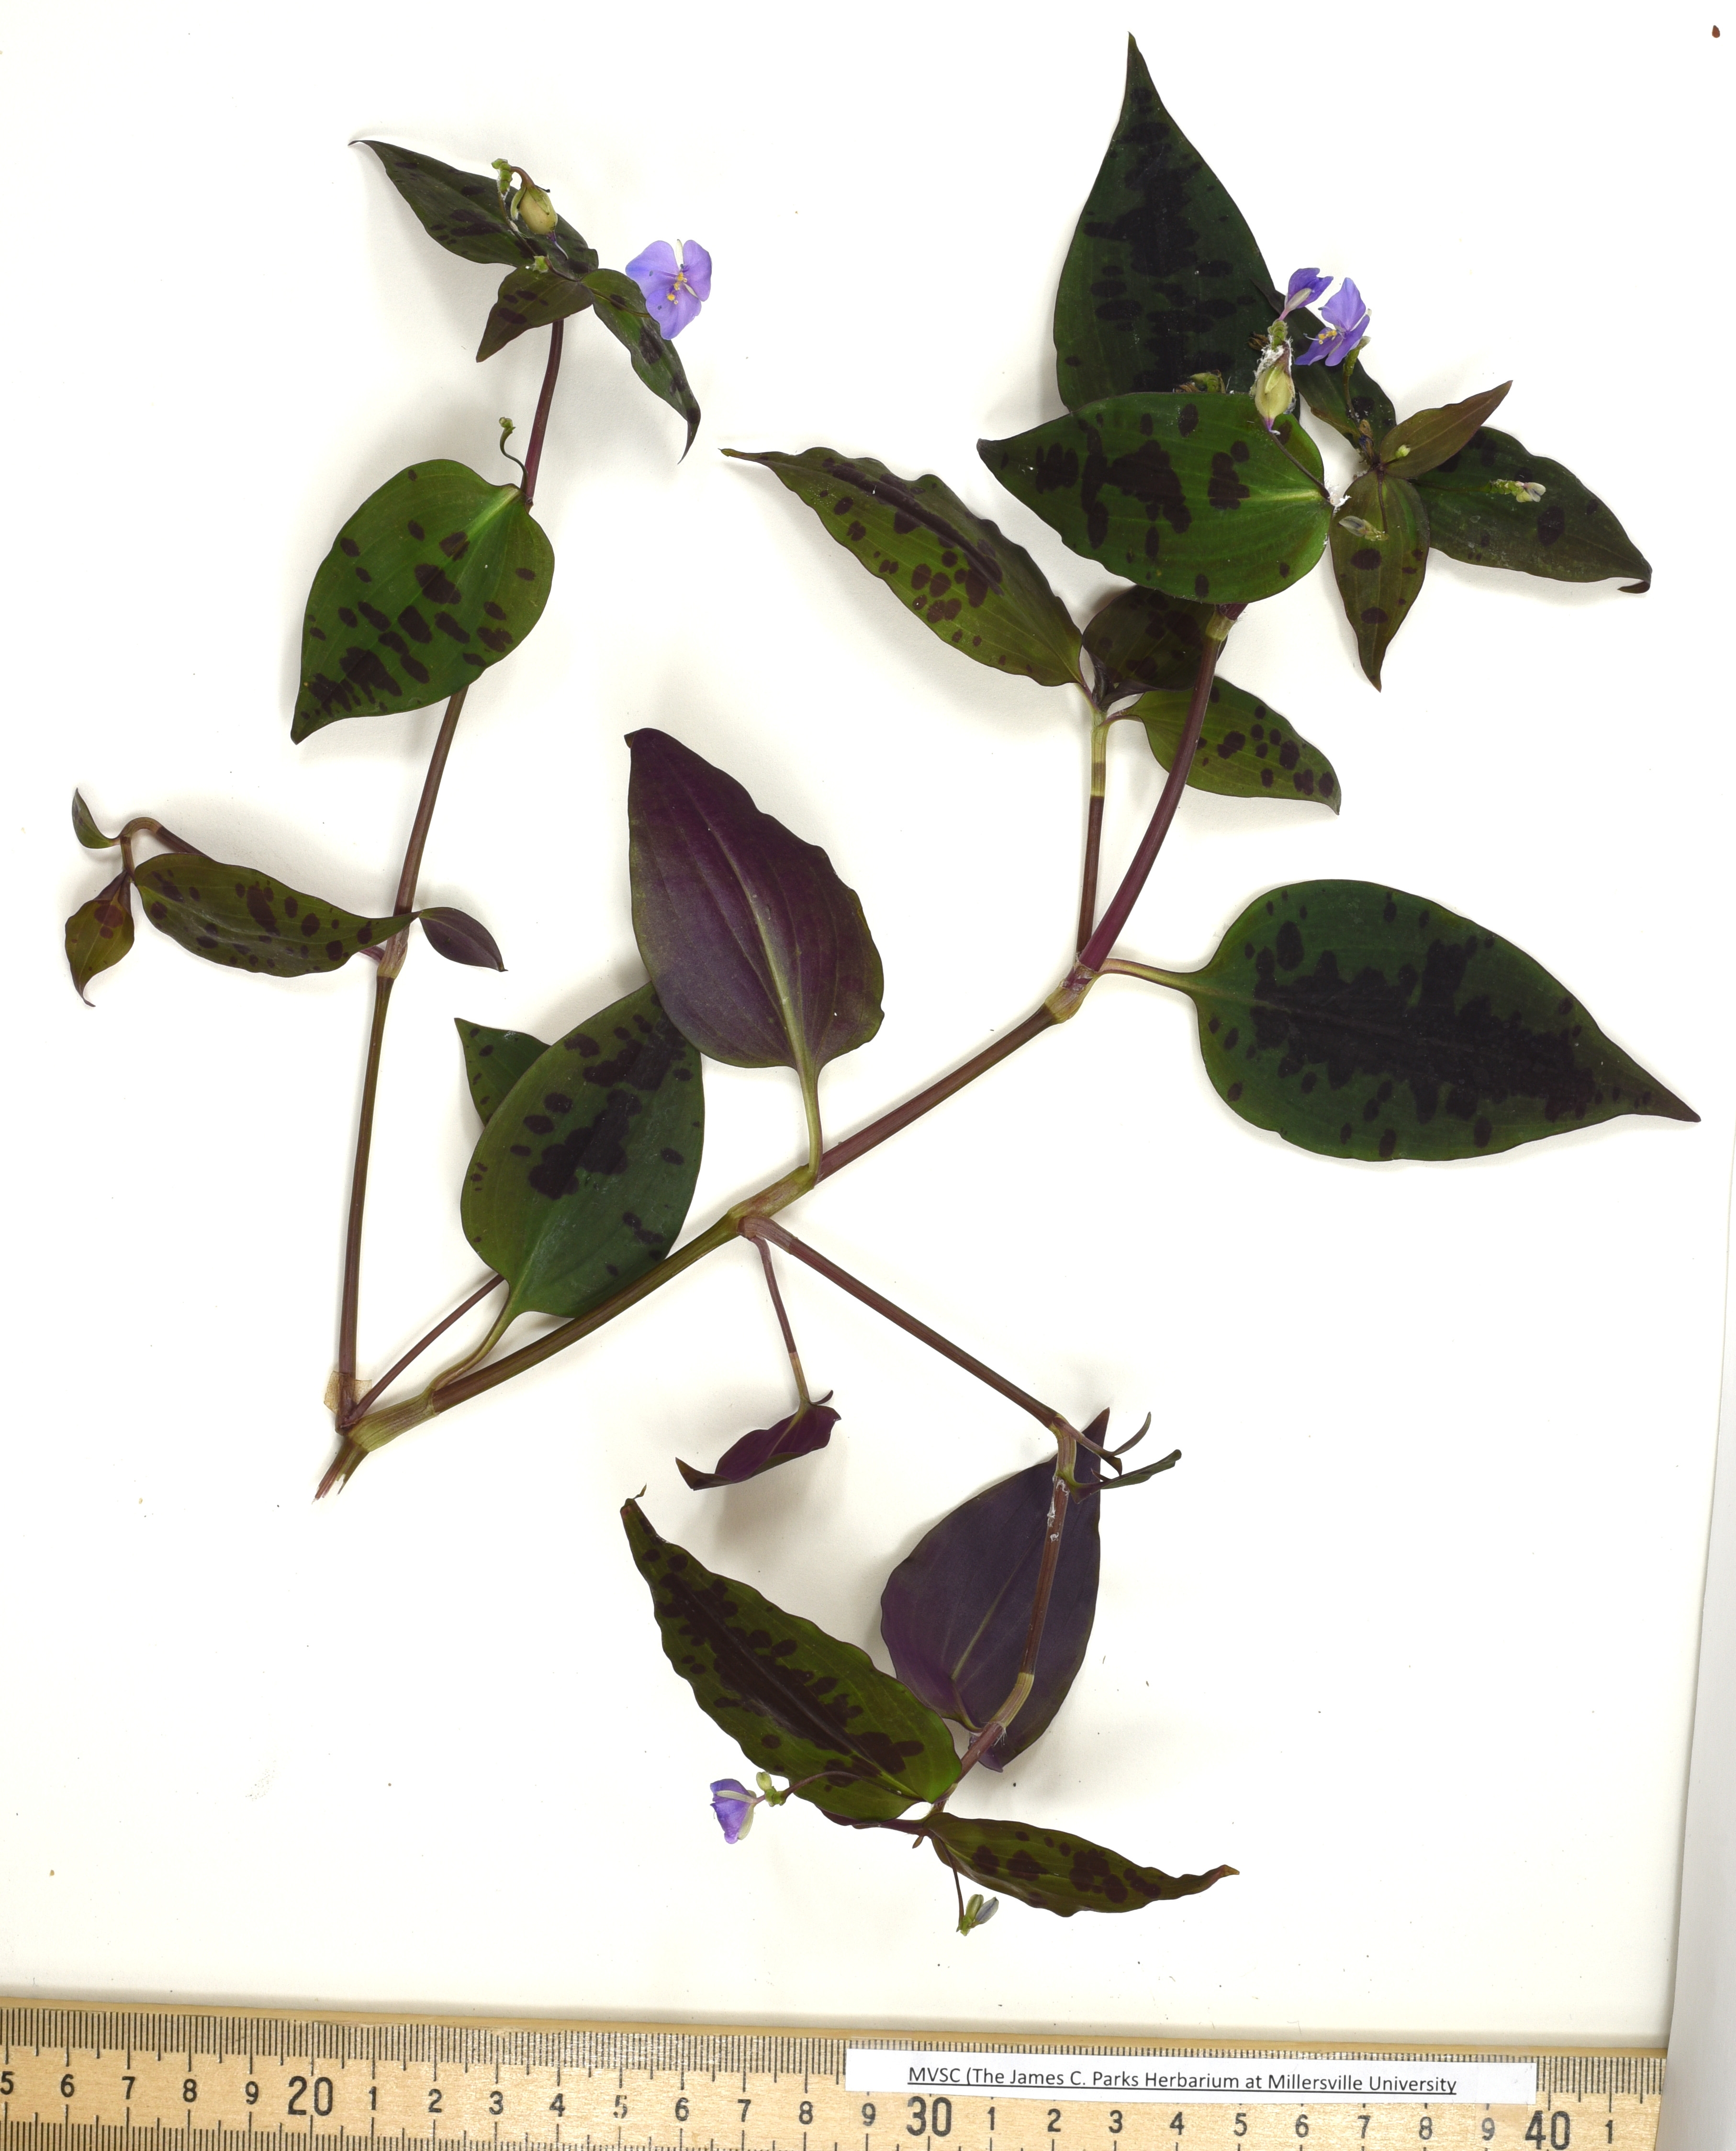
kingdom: Plantae
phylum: Tracheophyta
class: Liliopsida
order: Commelinales
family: Commelinaceae
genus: Tinantia
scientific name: Tinantia pringlei
